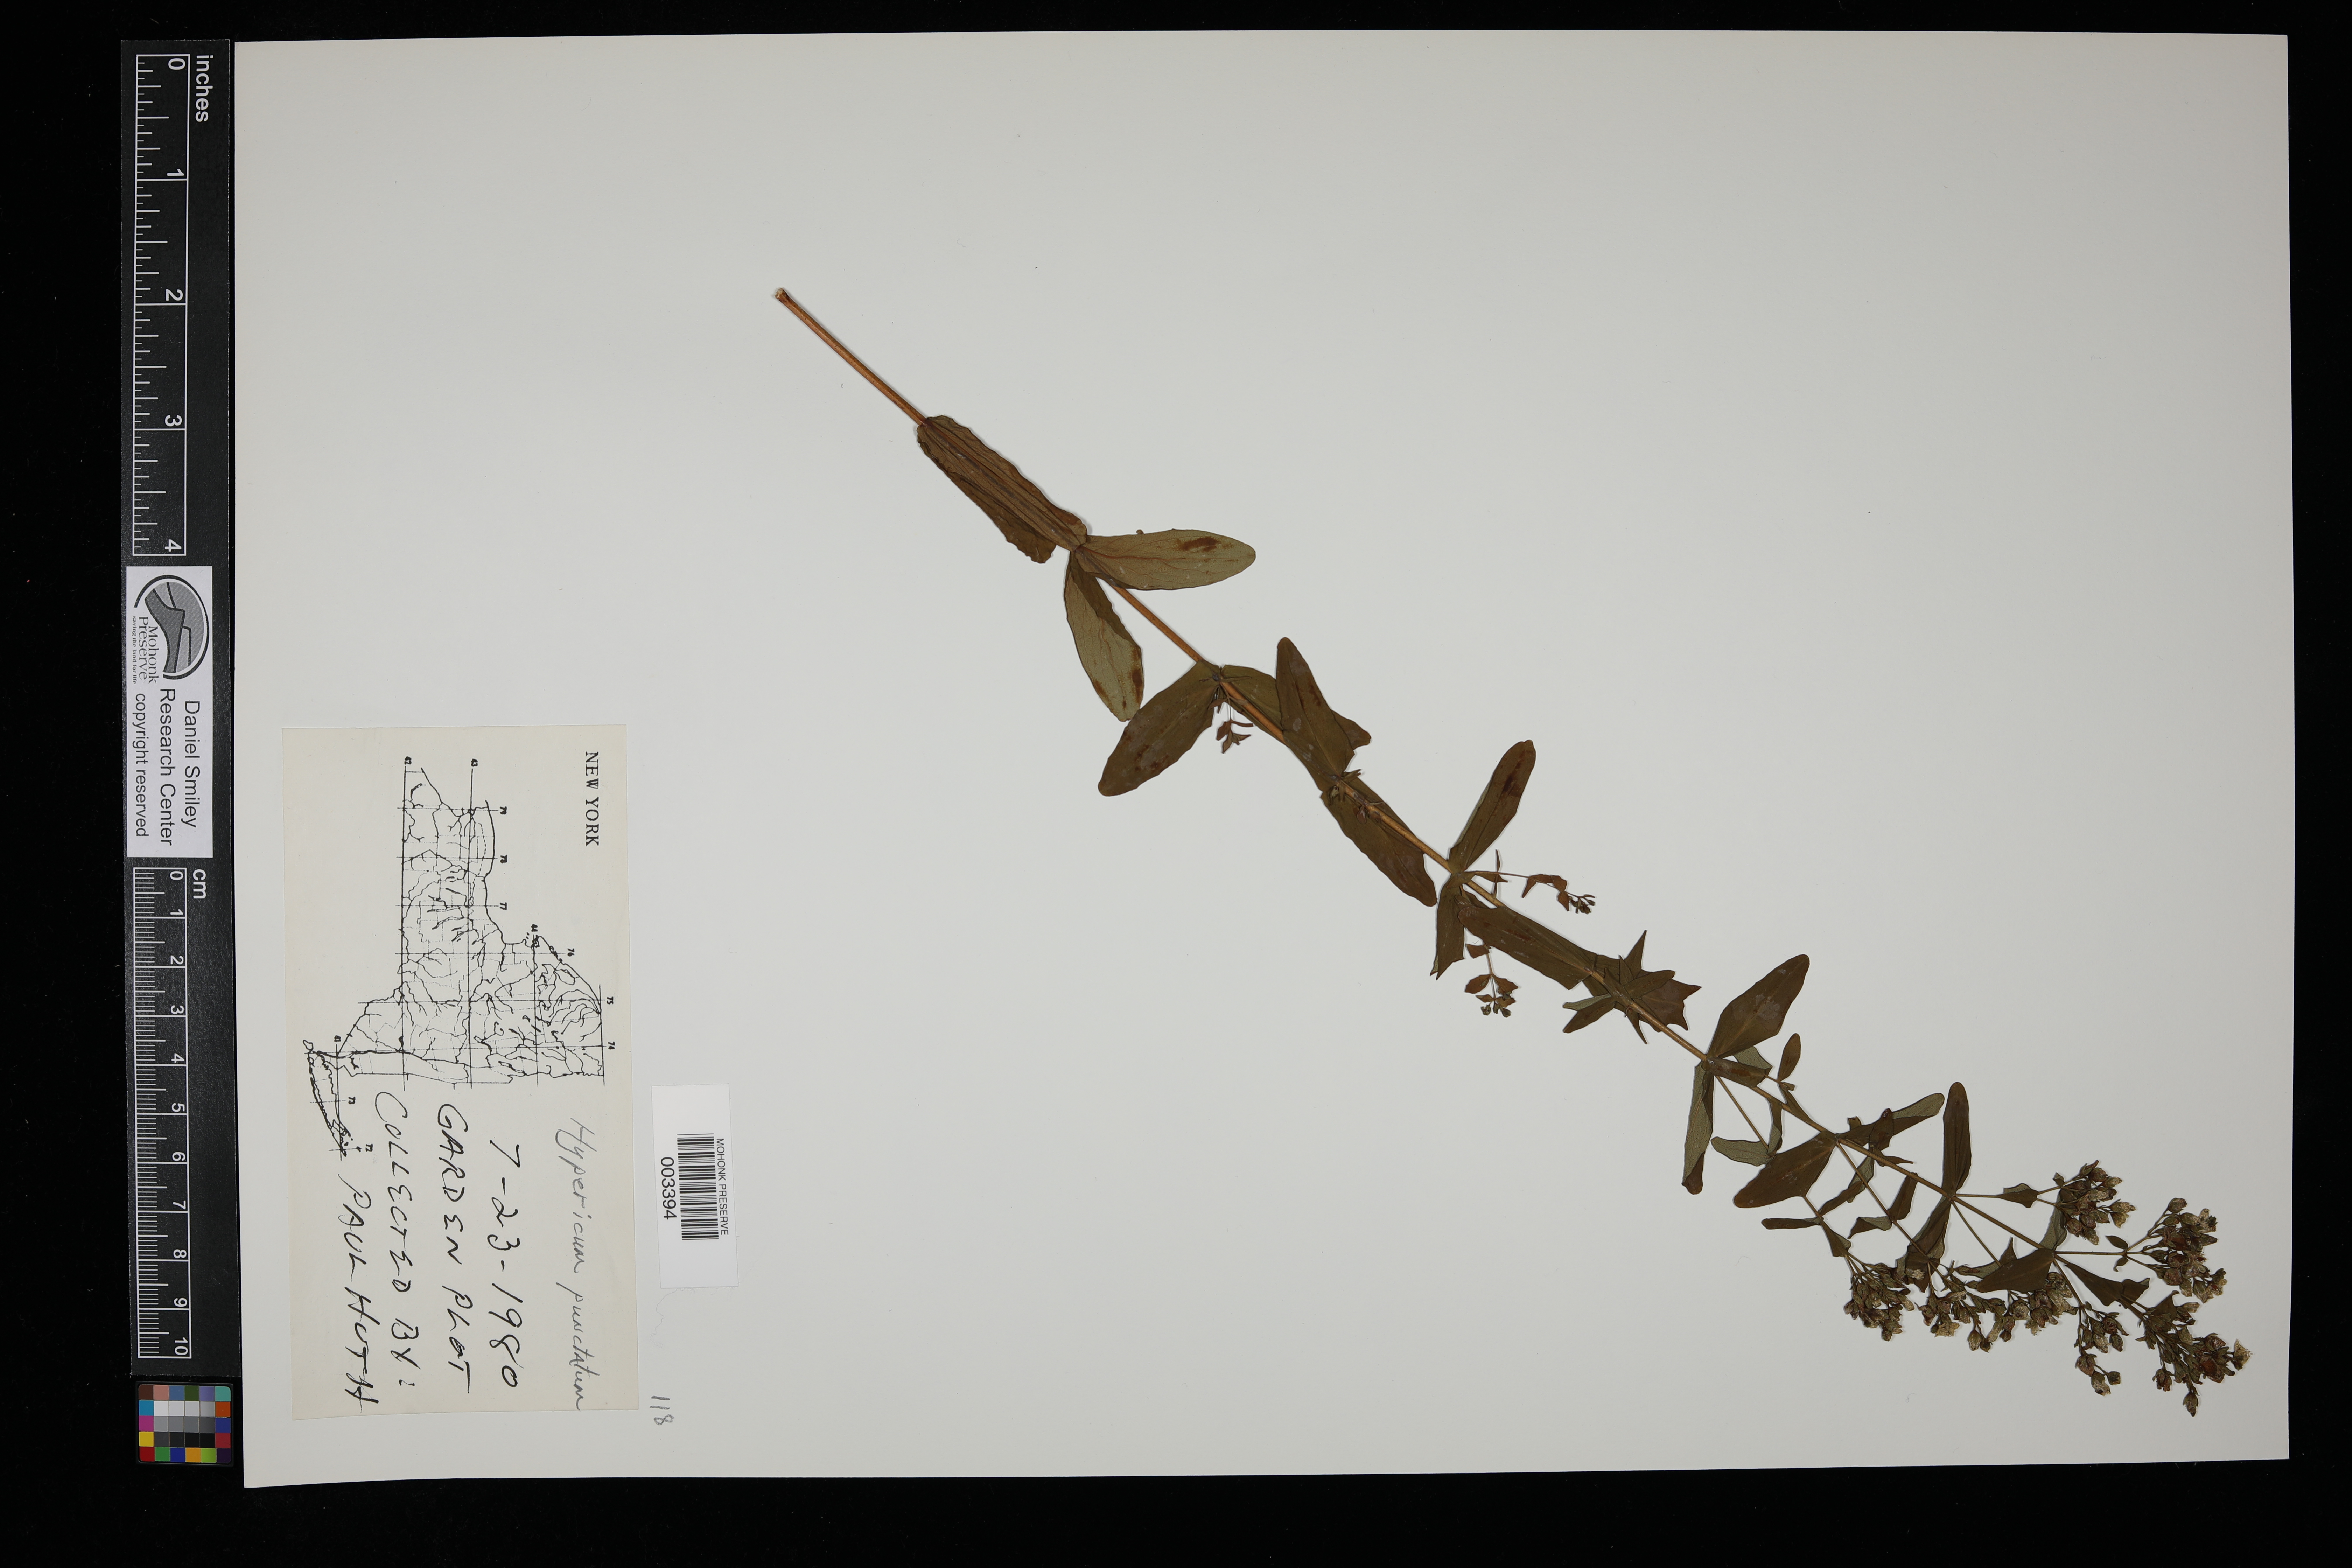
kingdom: Plantae
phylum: Tracheophyta
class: Magnoliopsida
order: Malpighiales
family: Hypericaceae
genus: Hypericum
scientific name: Hypericum punctatum
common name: Spotted st. john's-wort
